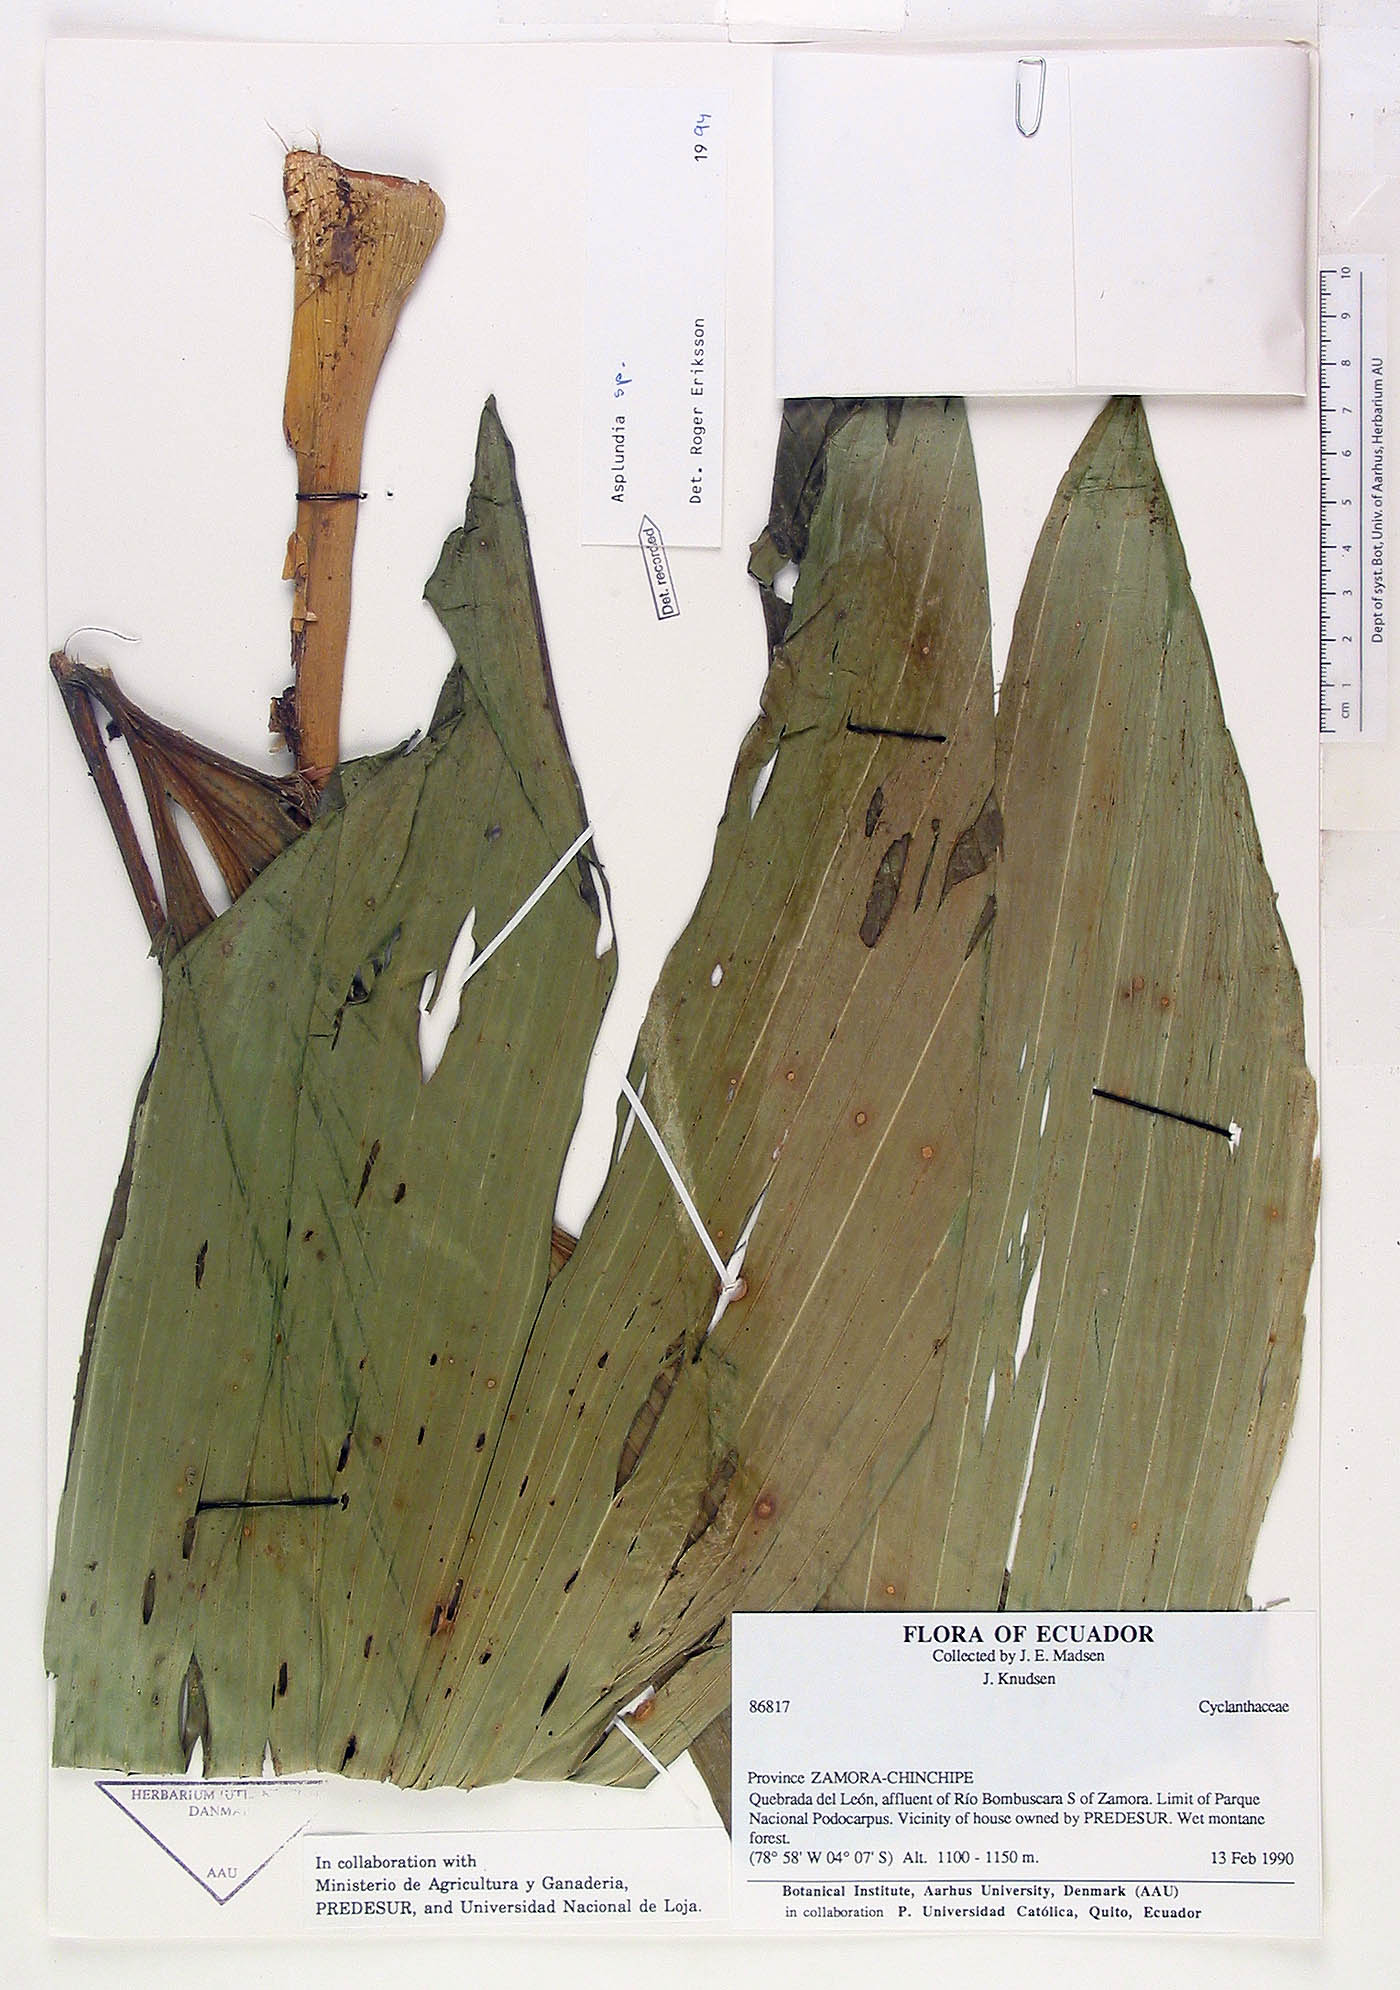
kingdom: Plantae
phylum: Tracheophyta
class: Liliopsida
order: Pandanales
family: Cyclanthaceae
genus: Asplundia
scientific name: Asplundia
